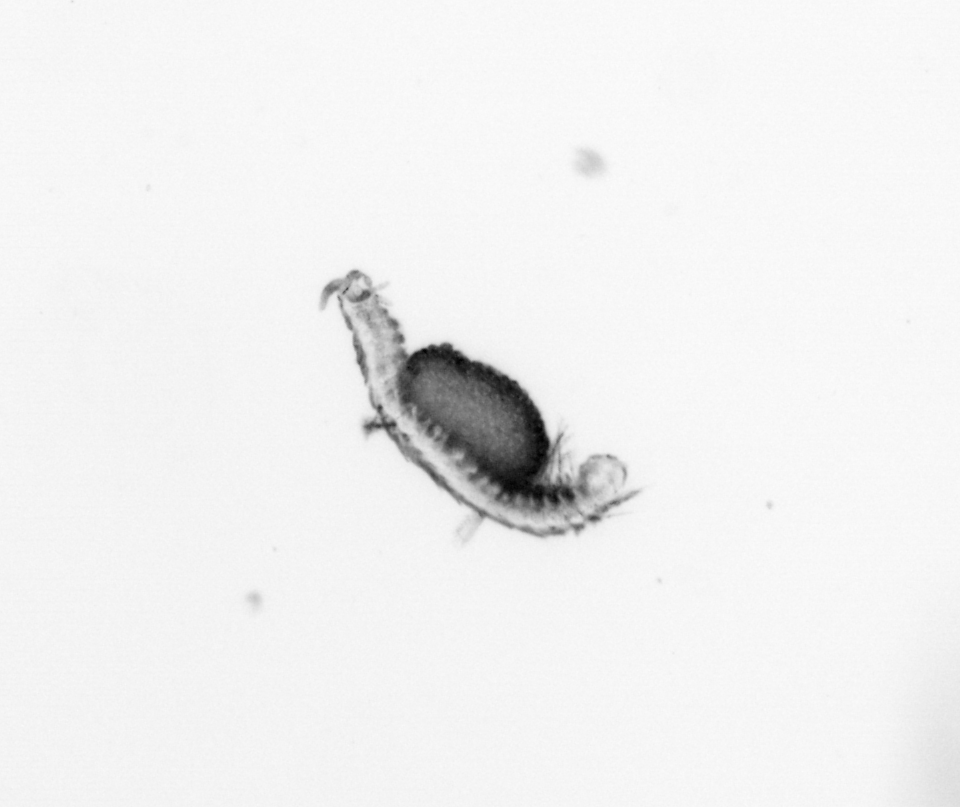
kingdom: Animalia
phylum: Annelida
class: Polychaeta
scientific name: Polychaeta
